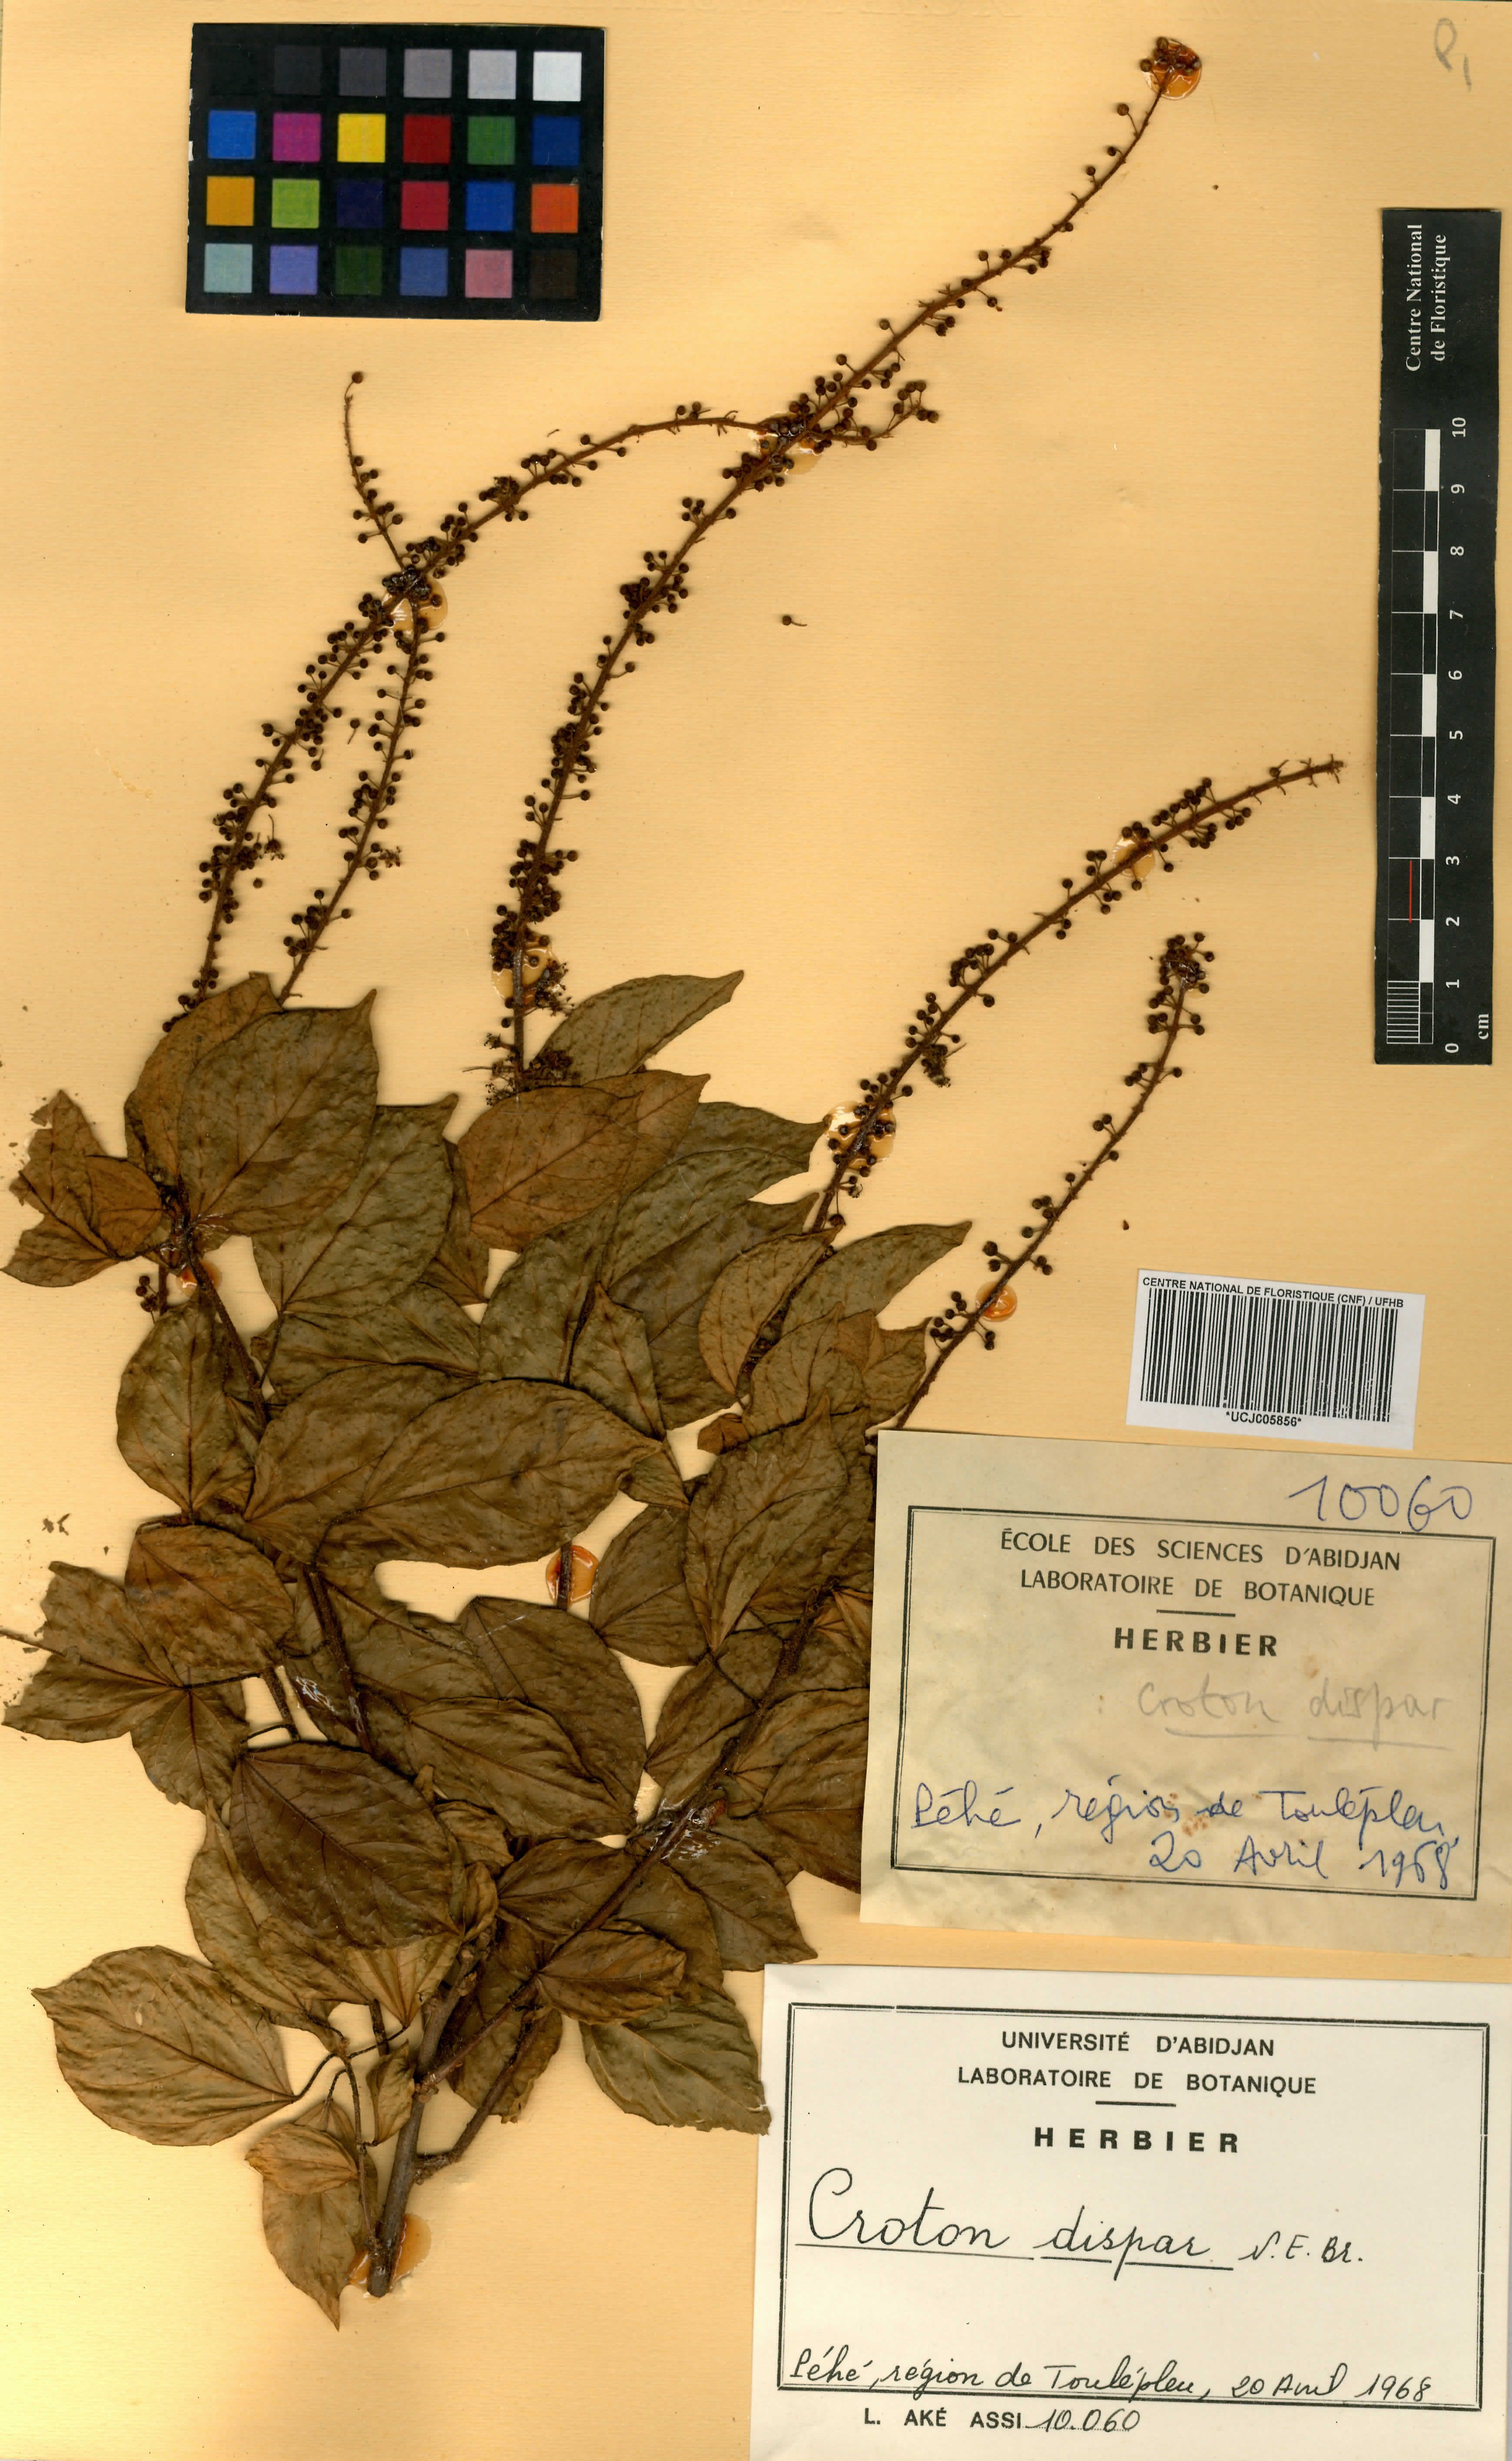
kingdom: Plantae
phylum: Tracheophyta
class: Magnoliopsida
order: Malpighiales
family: Euphorbiaceae
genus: Croton
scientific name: Croton haumanianus
